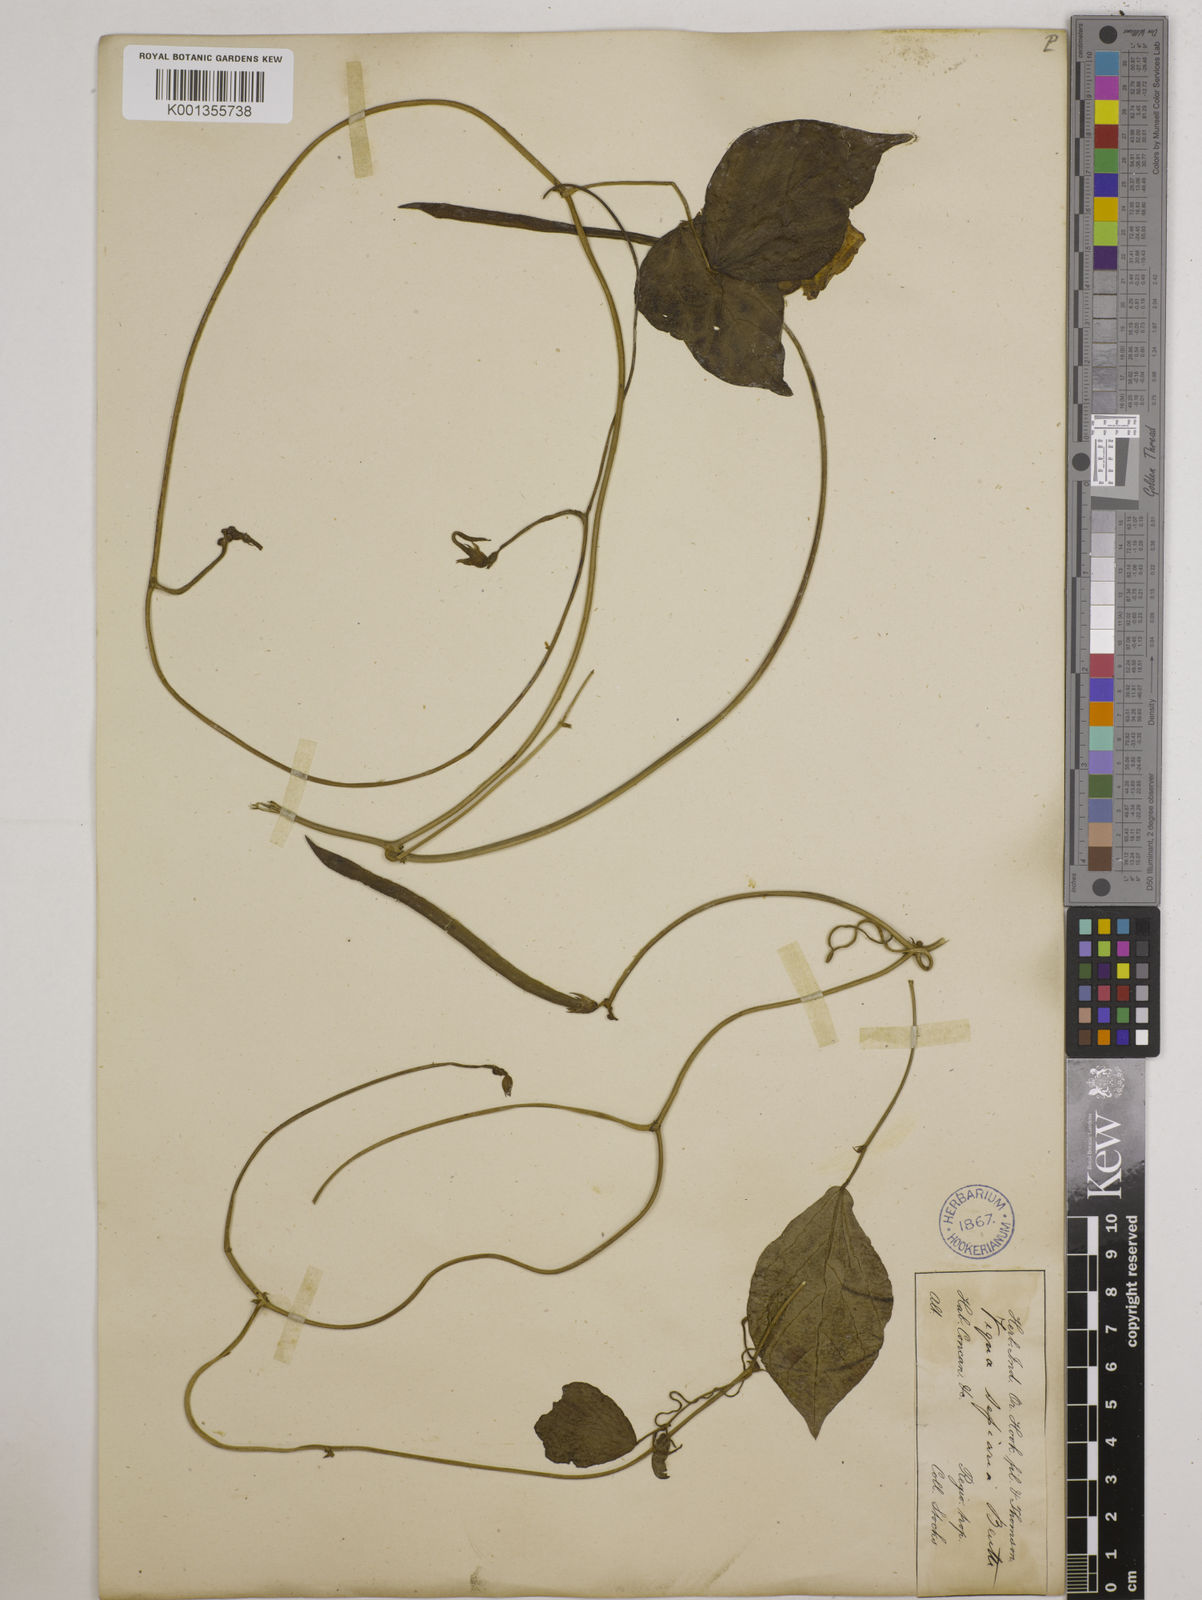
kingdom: Plantae
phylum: Tracheophyta
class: Magnoliopsida
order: Fabales
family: Fabaceae
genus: Vigna
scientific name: Vigna vexillata
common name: Zombi pea
